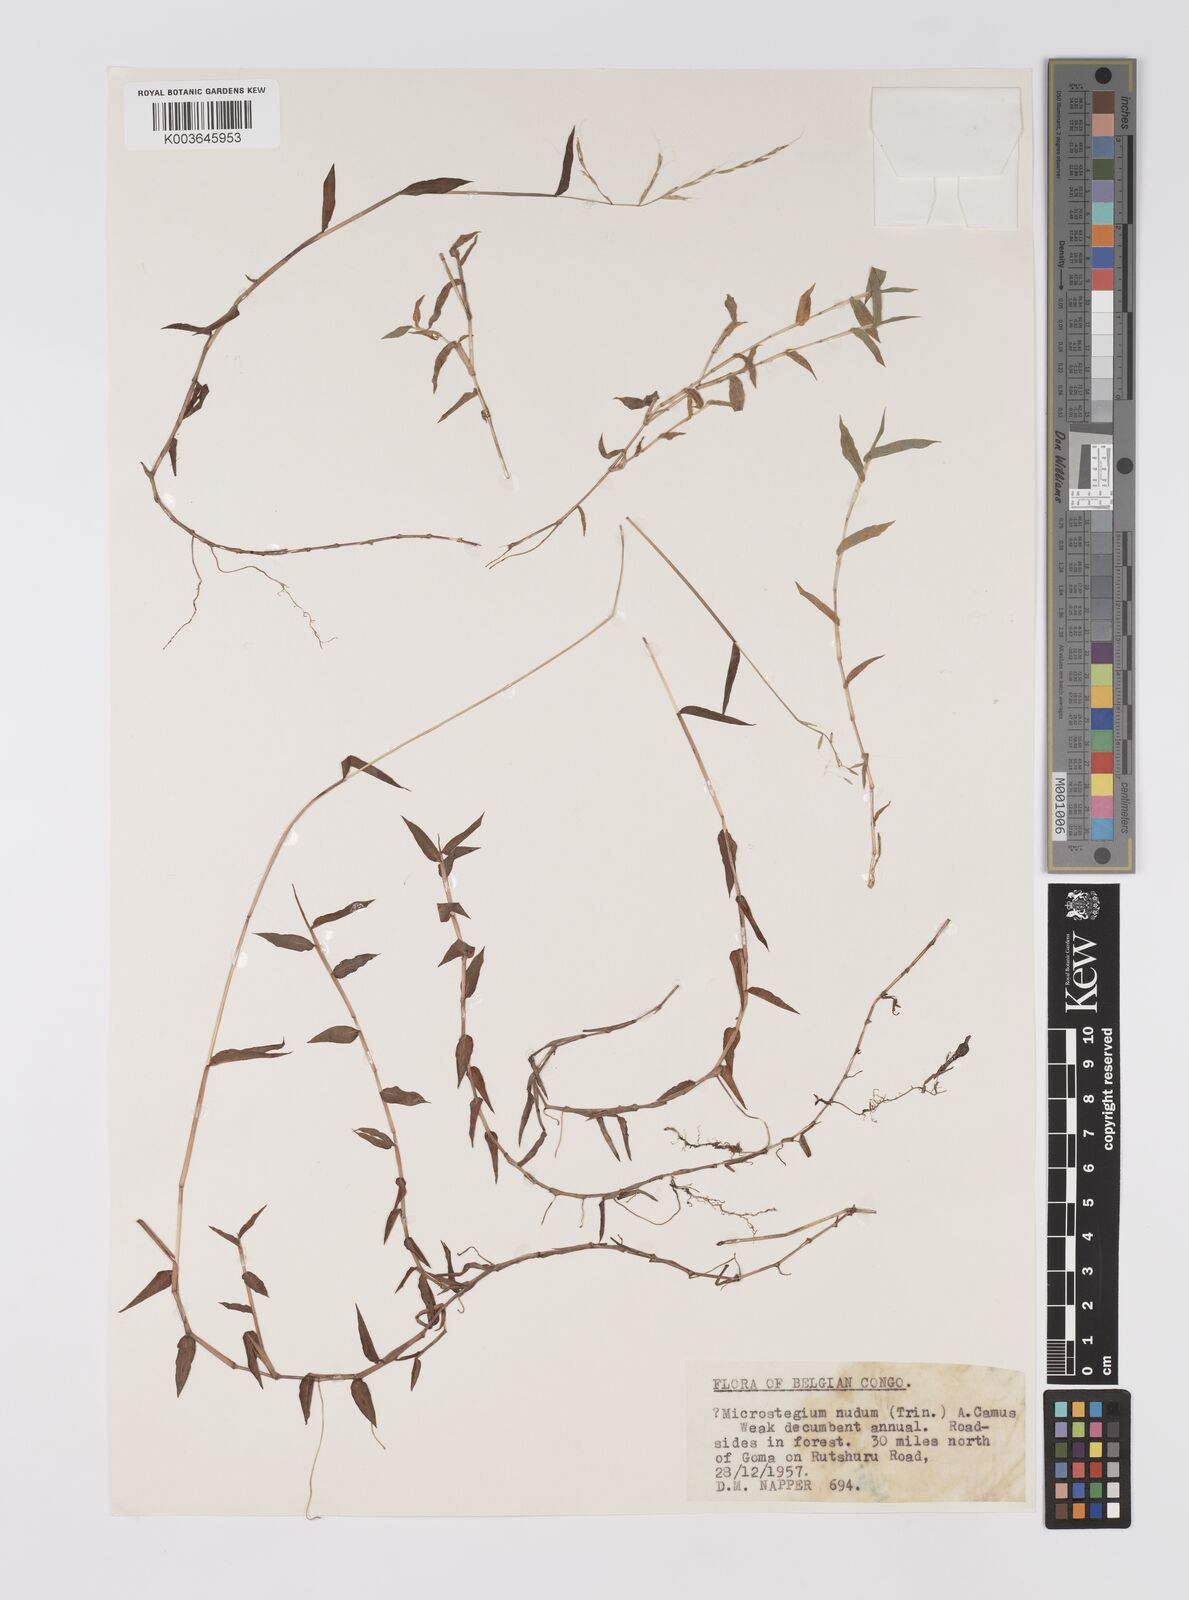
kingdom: Plantae
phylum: Tracheophyta
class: Liliopsida
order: Poales
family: Poaceae
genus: Microstegium
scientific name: Microstegium nudum
